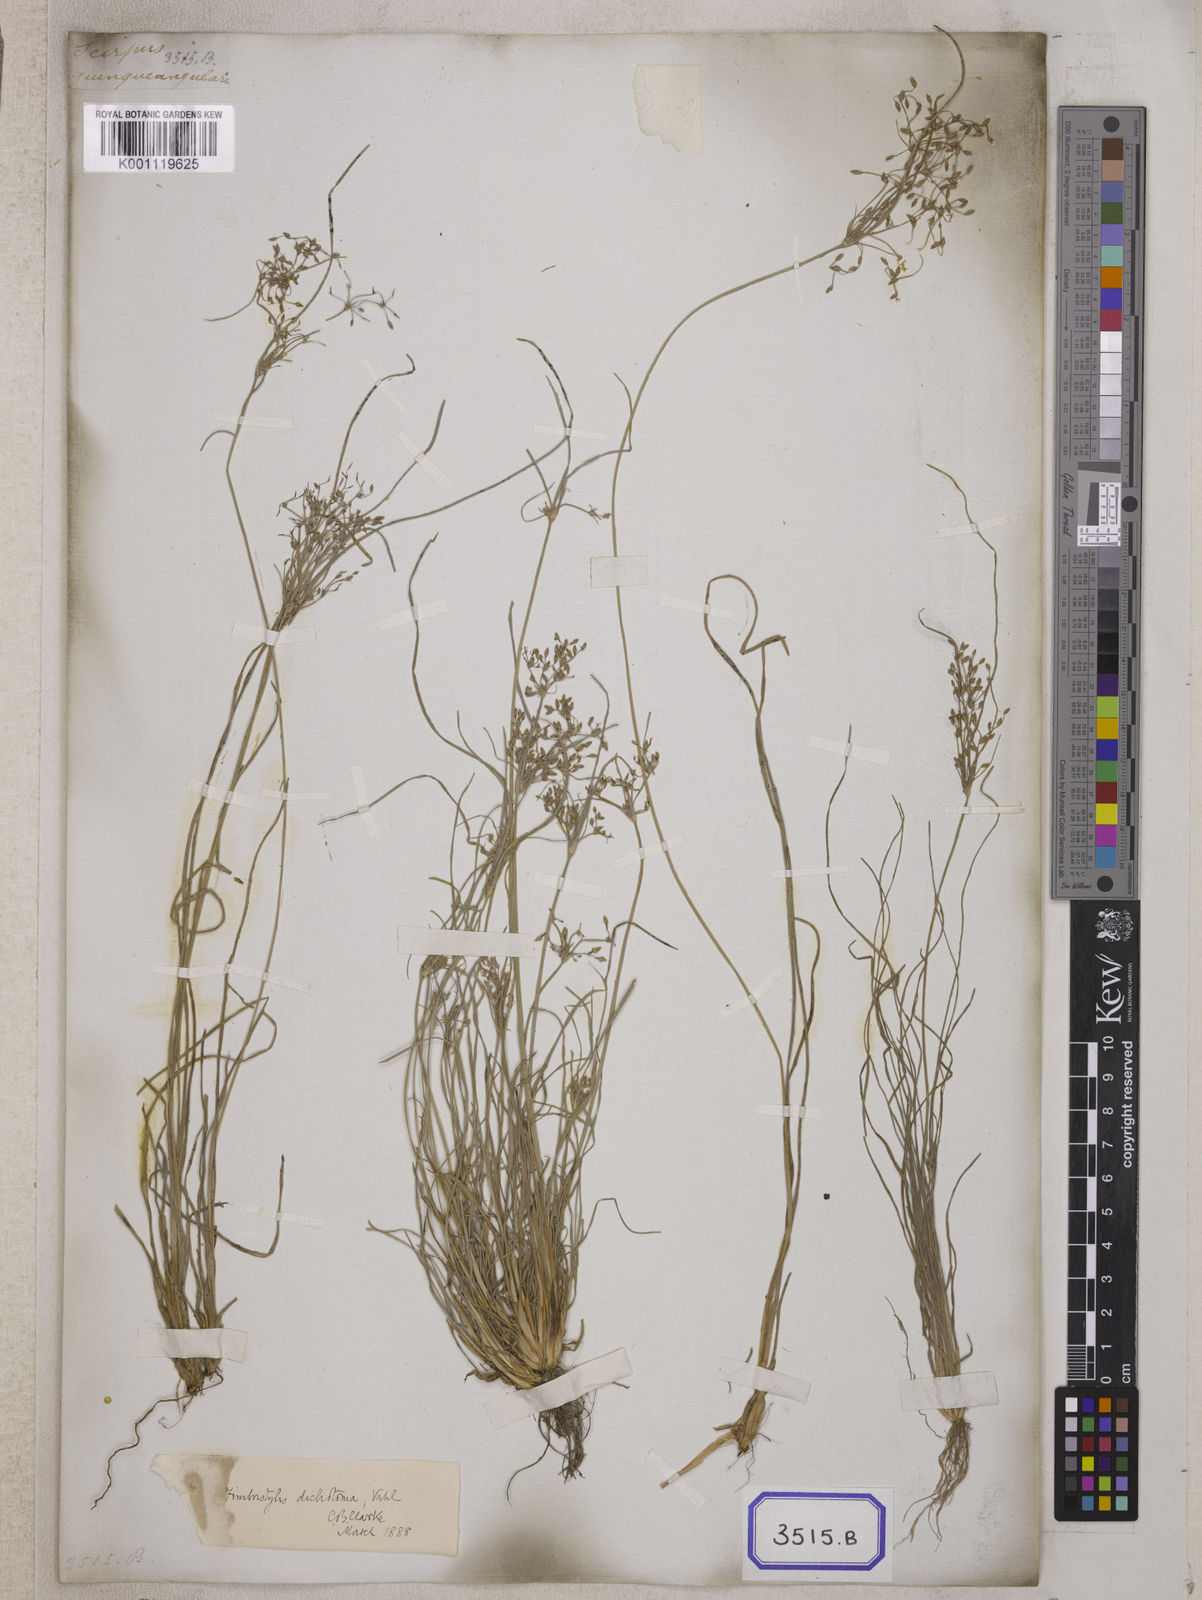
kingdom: Plantae
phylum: Tracheophyta
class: Liliopsida
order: Poales
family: Cyperaceae
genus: Fimbristylis
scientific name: Fimbristylis
